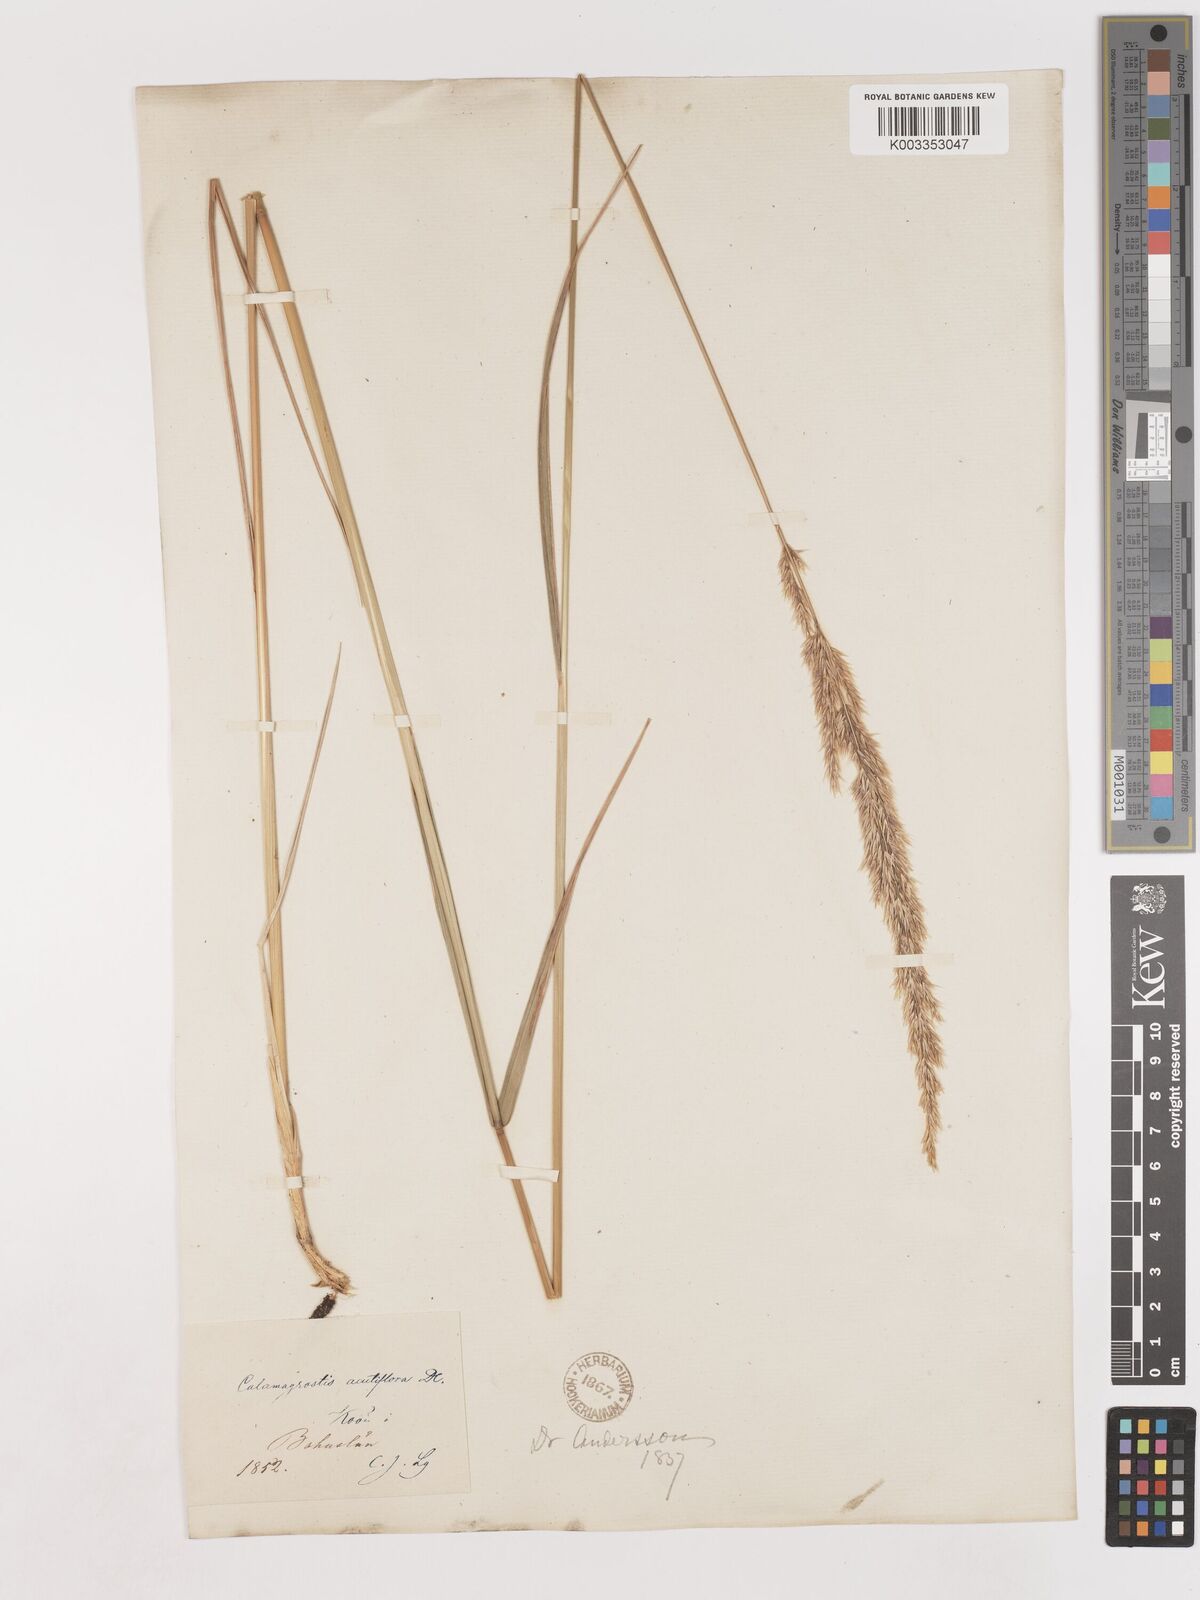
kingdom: Plantae
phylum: Tracheophyta
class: Liliopsida
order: Poales
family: Poaceae
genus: Calamagrostis
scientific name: Calamagrostis epigejos
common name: Wood small-reed
